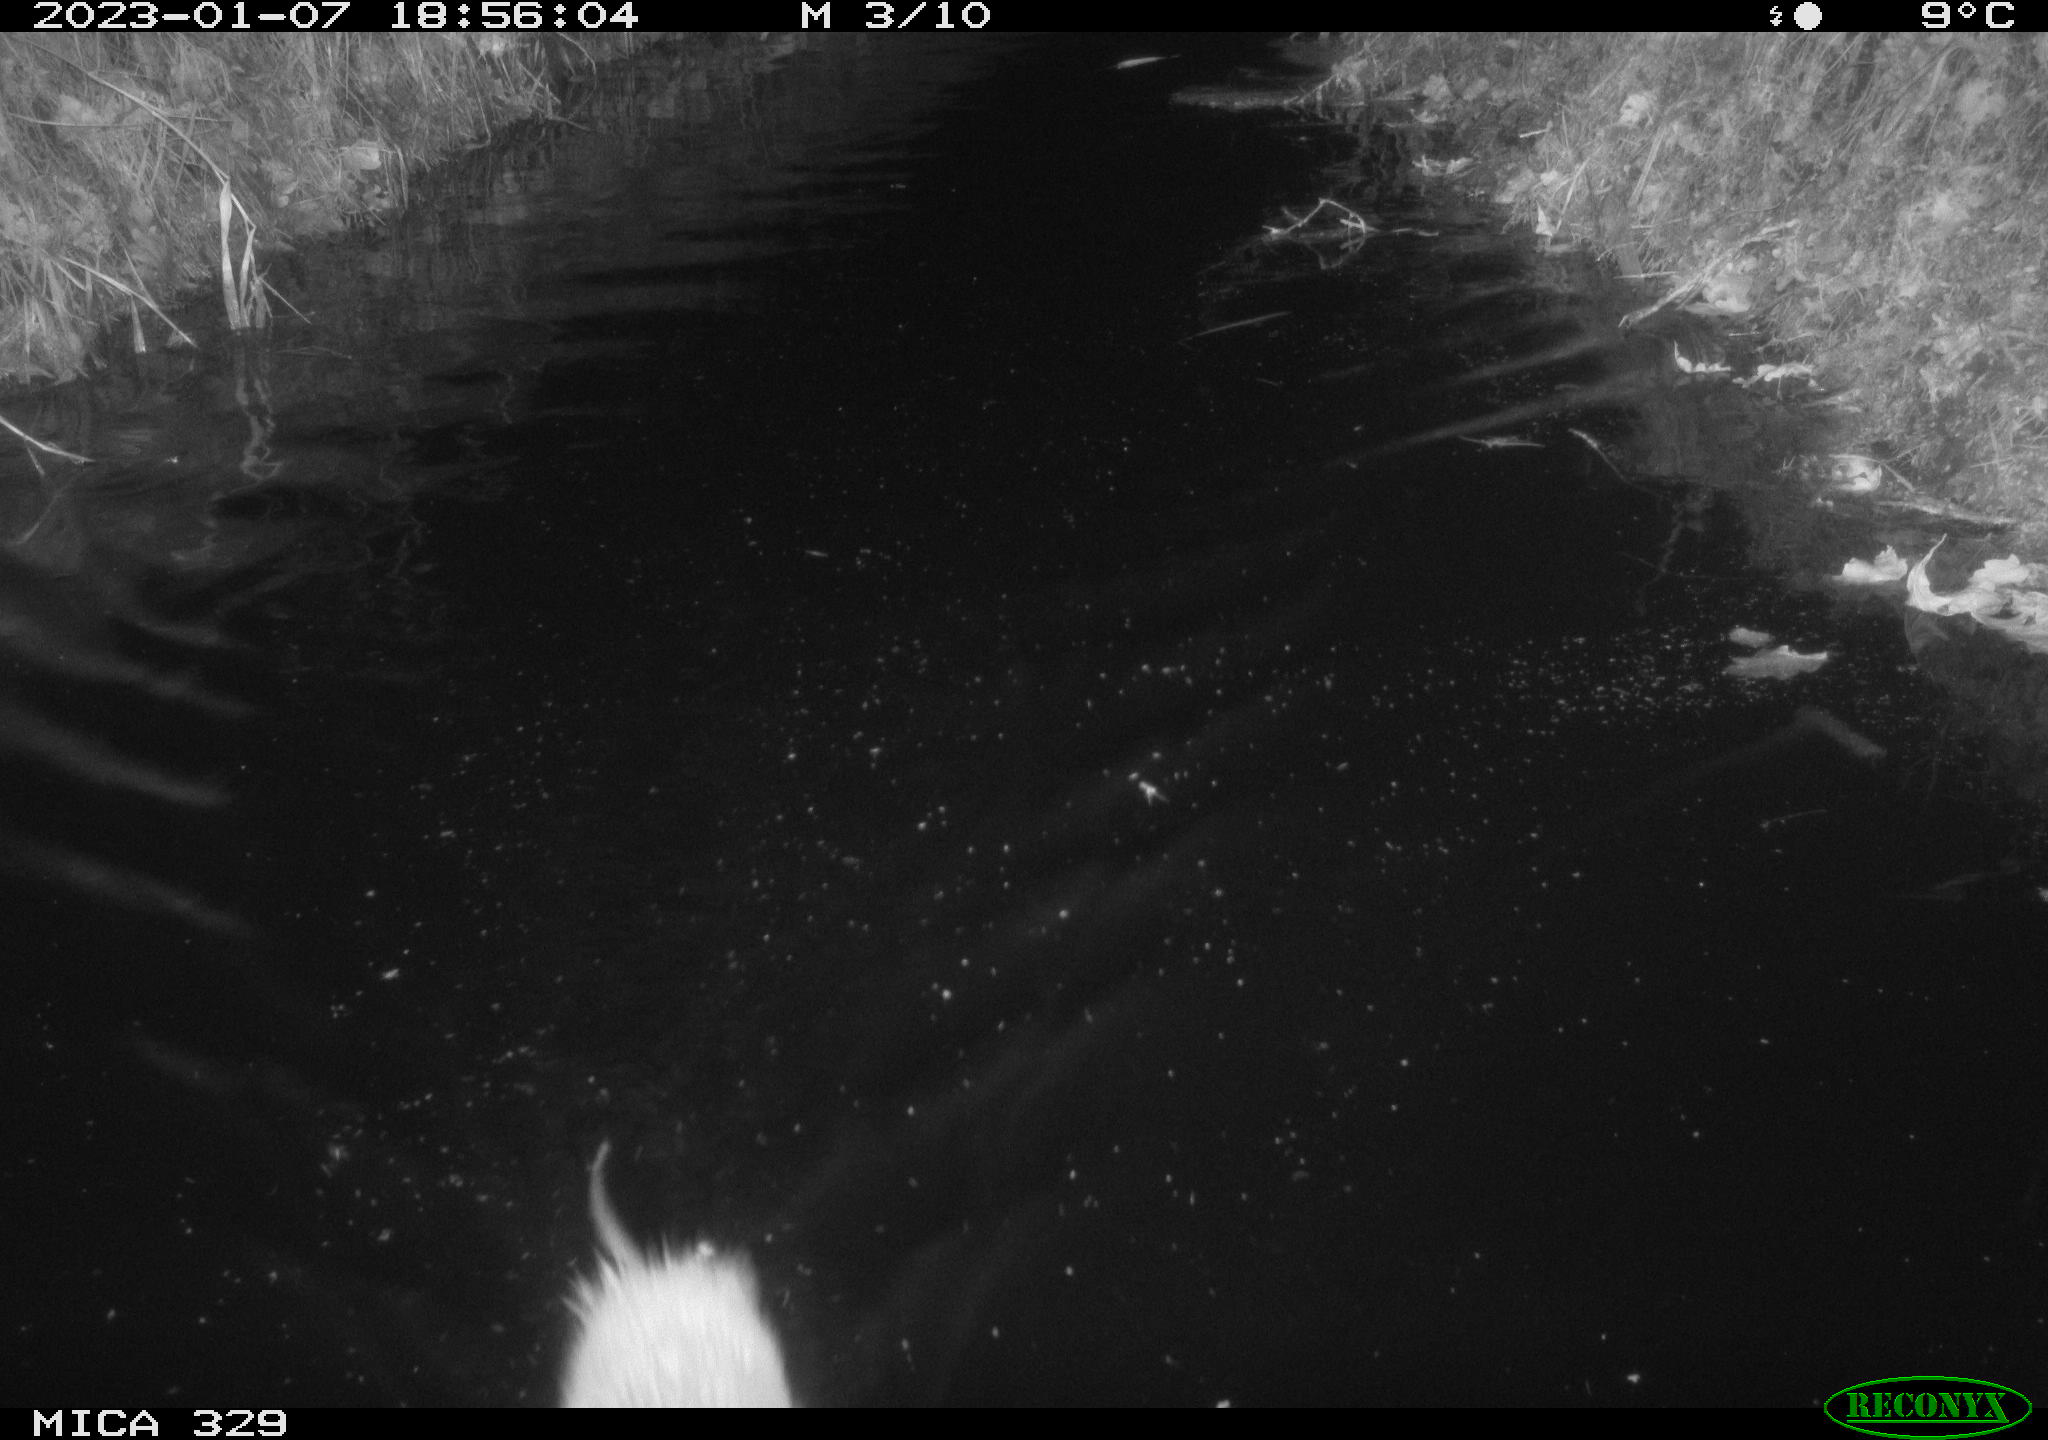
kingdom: Animalia
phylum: Chordata
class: Mammalia
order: Rodentia
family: Cricetidae
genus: Ondatra
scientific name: Ondatra zibethicus
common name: Muskrat
